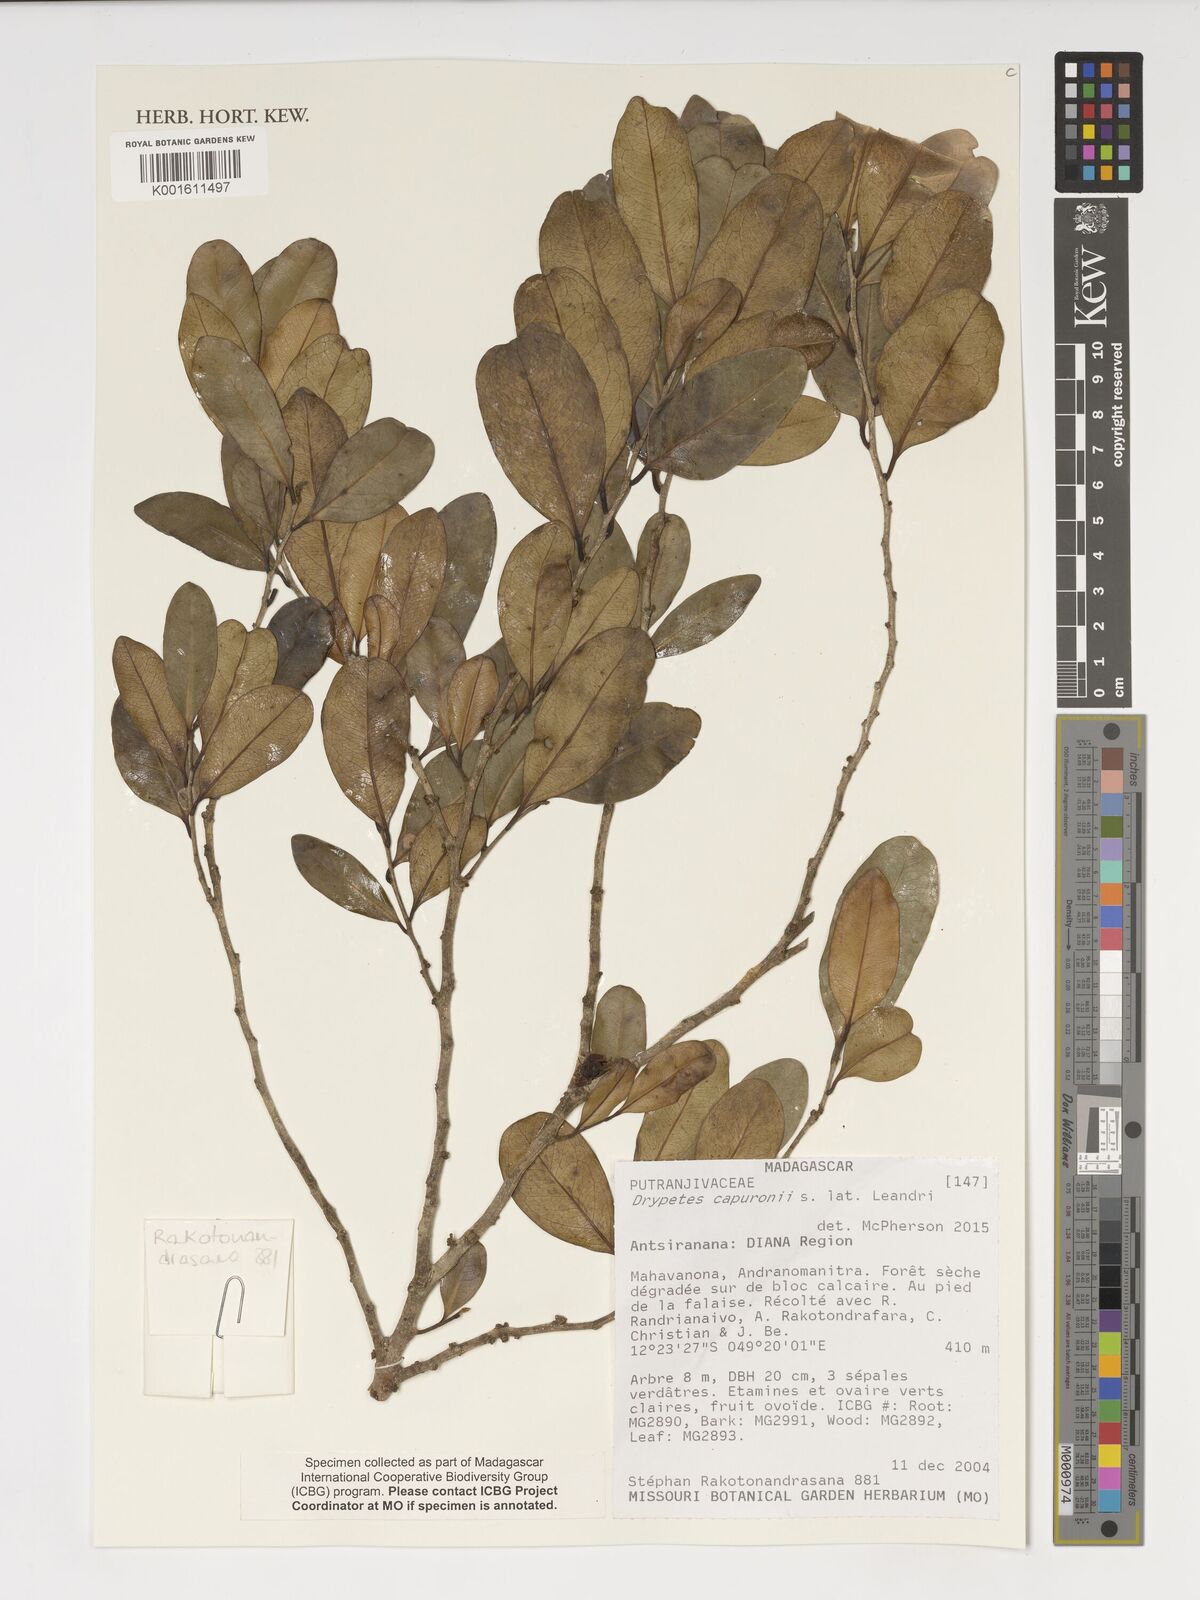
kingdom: Plantae
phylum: Tracheophyta
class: Magnoliopsida
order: Malpighiales
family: Putranjivaceae
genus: Drypetes
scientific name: Drypetes capuronii
